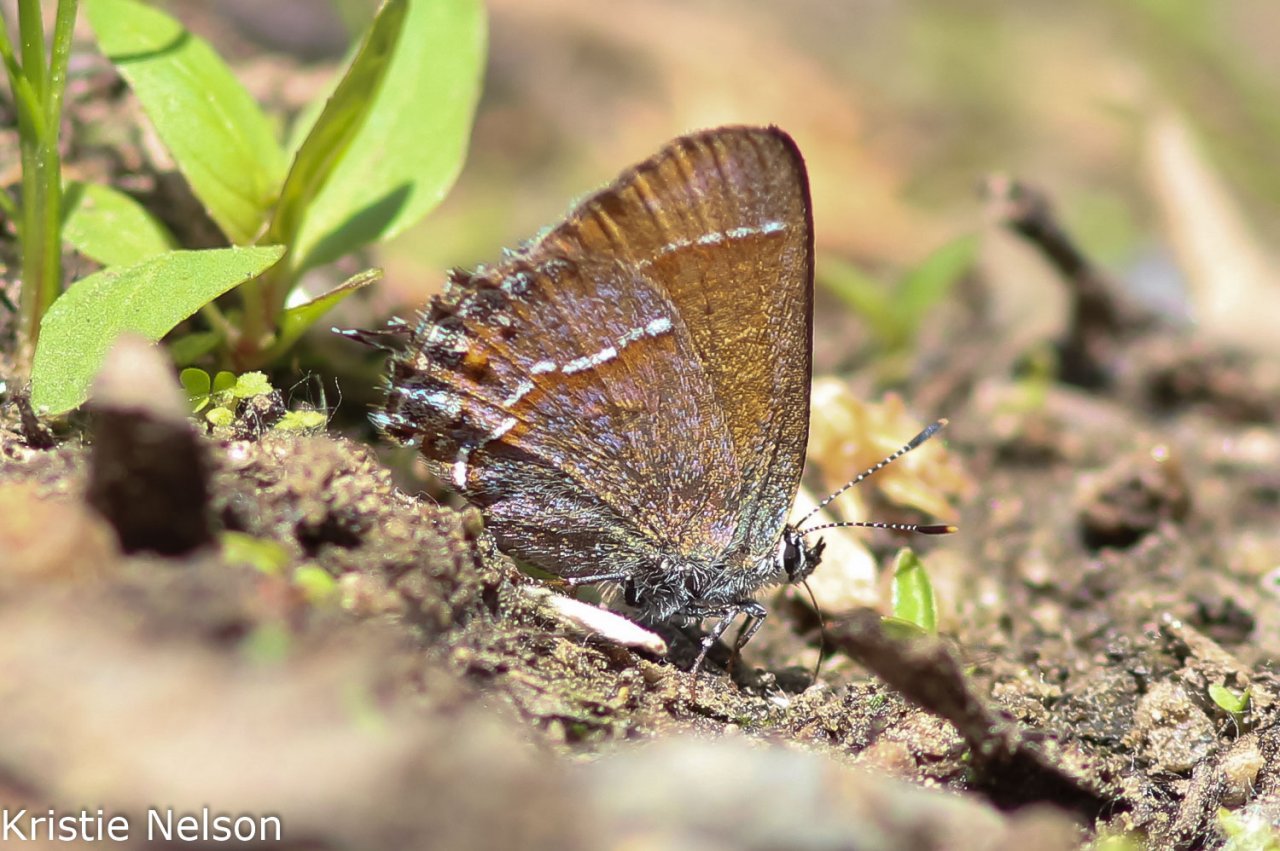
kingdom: Animalia
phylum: Arthropoda
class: Insecta
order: Lepidoptera
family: Lycaenidae
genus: Mitoura
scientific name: Mitoura gryneus
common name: Juniper Hairstreak
